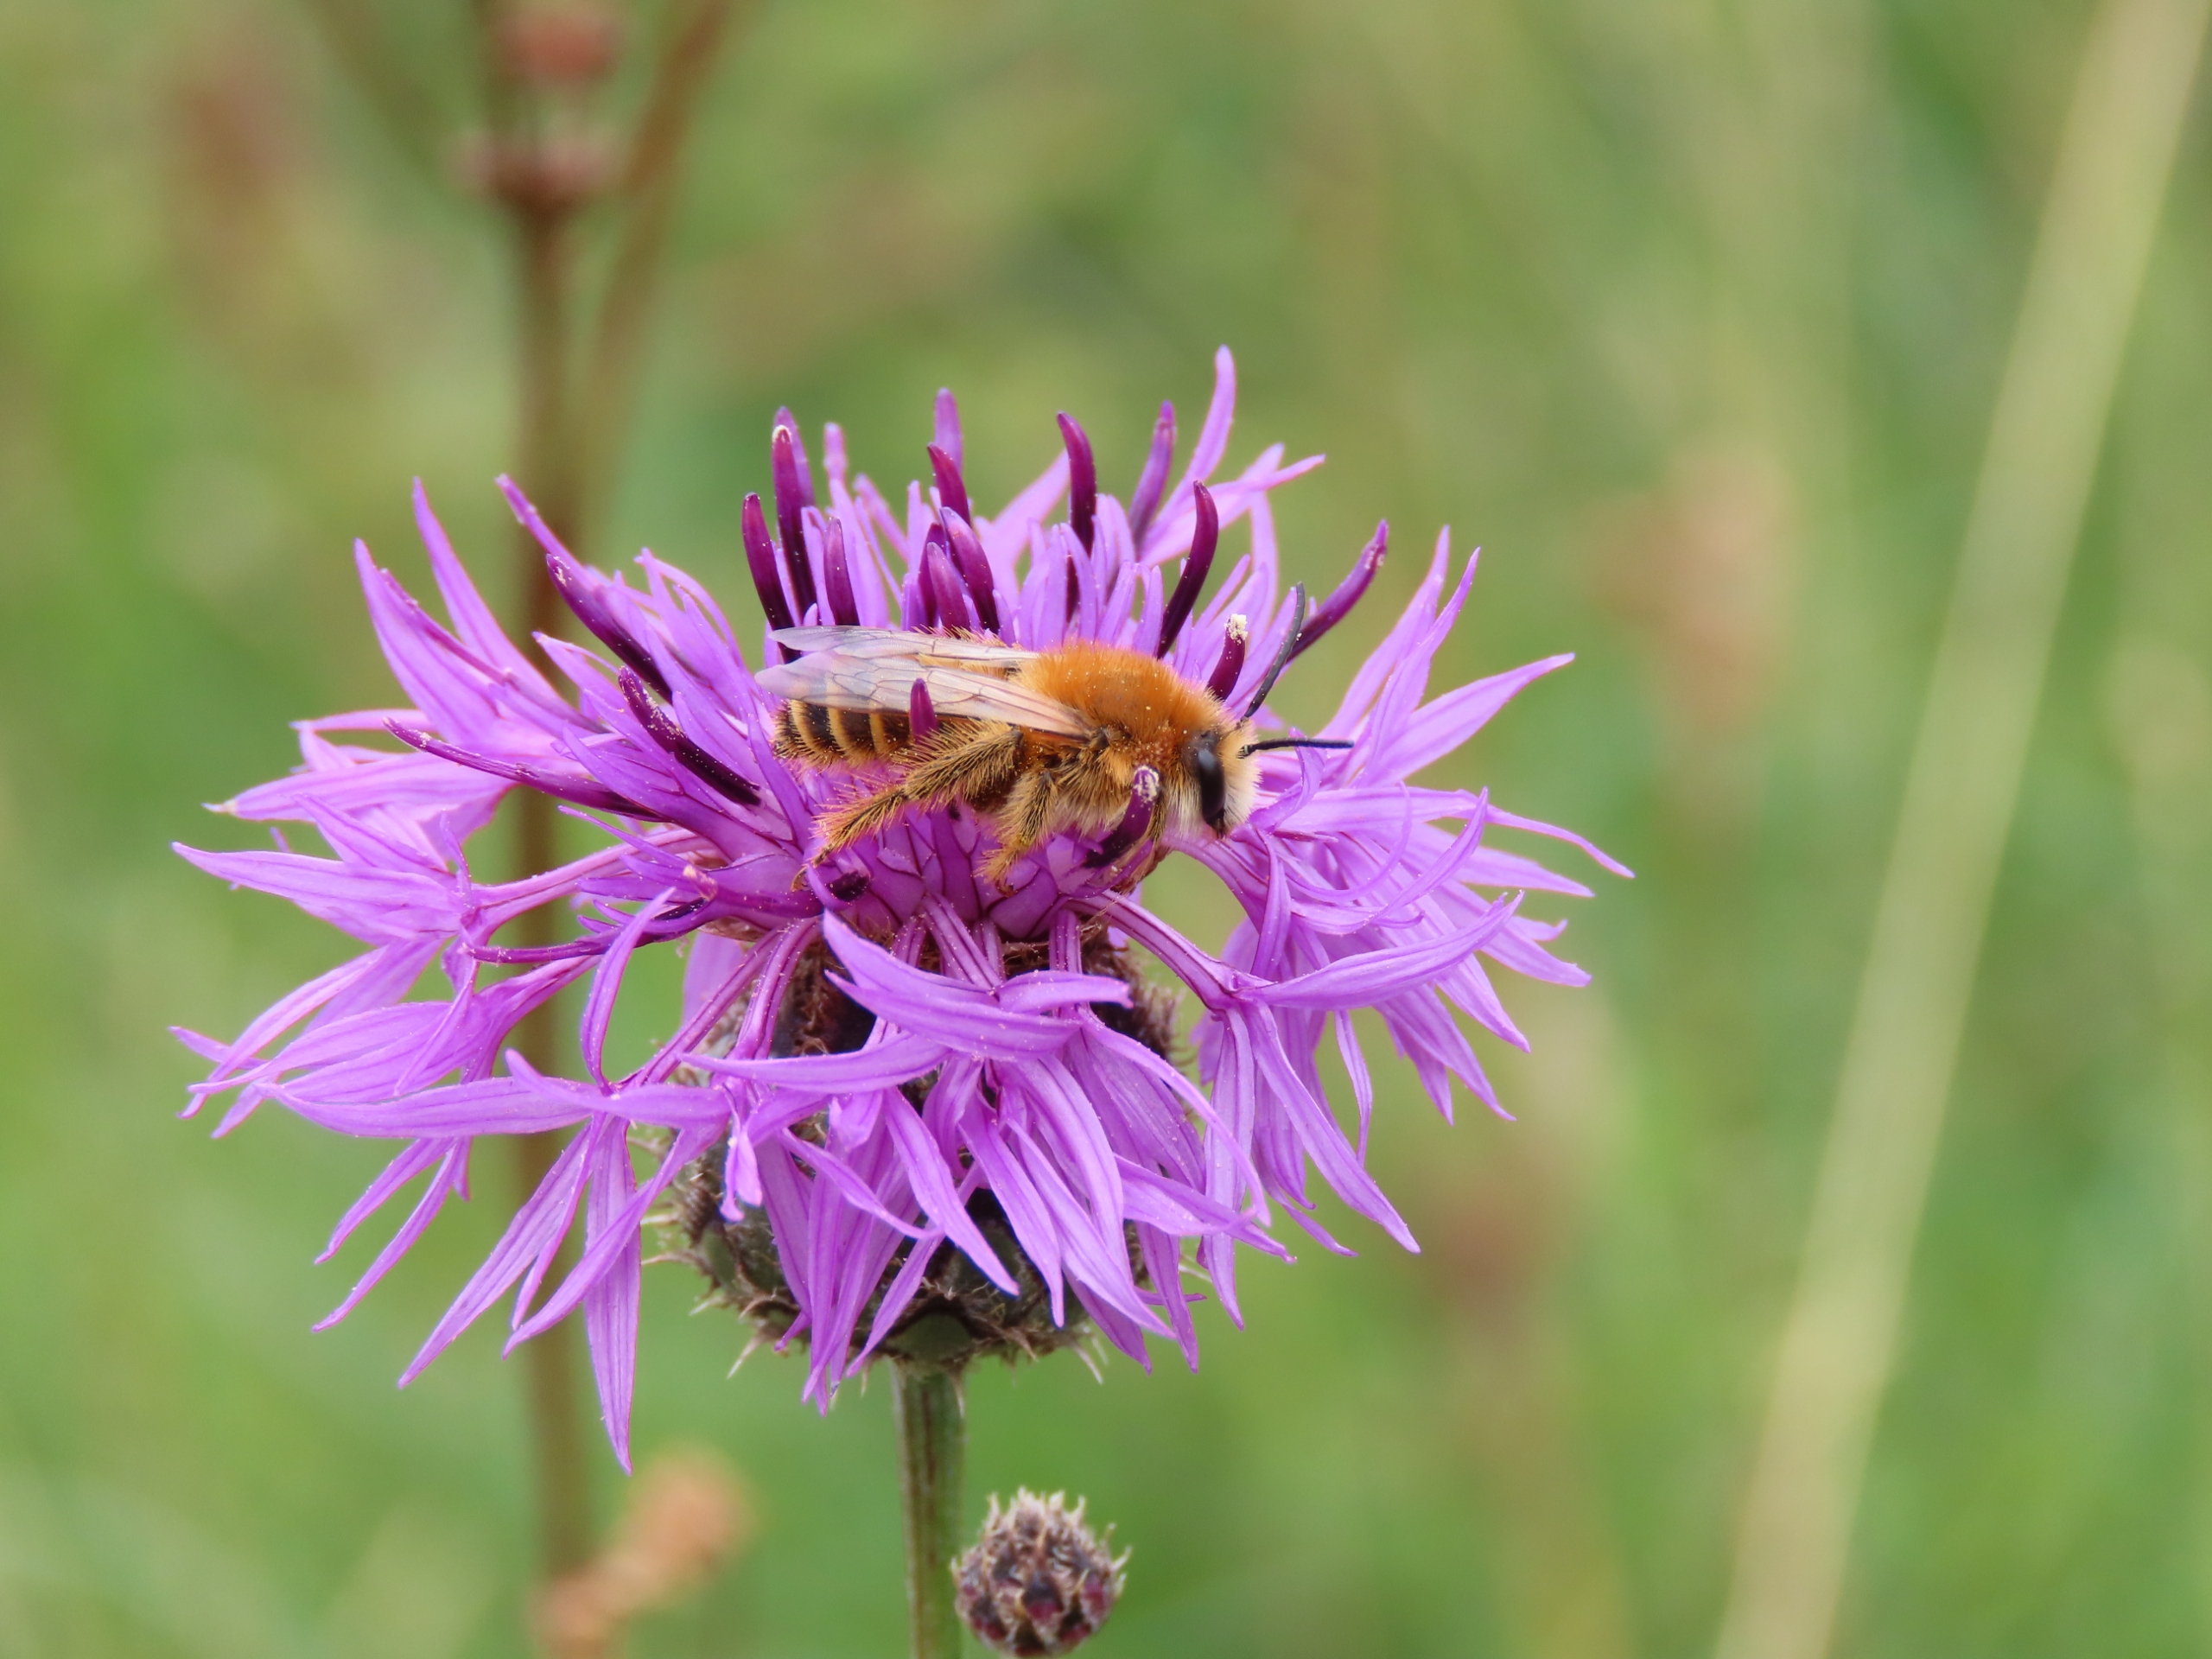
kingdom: Animalia
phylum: Arthropoda
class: Insecta
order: Hymenoptera
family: Melittidae
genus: Dasypoda
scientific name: Dasypoda hirtipes
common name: Pragtbuksebi
